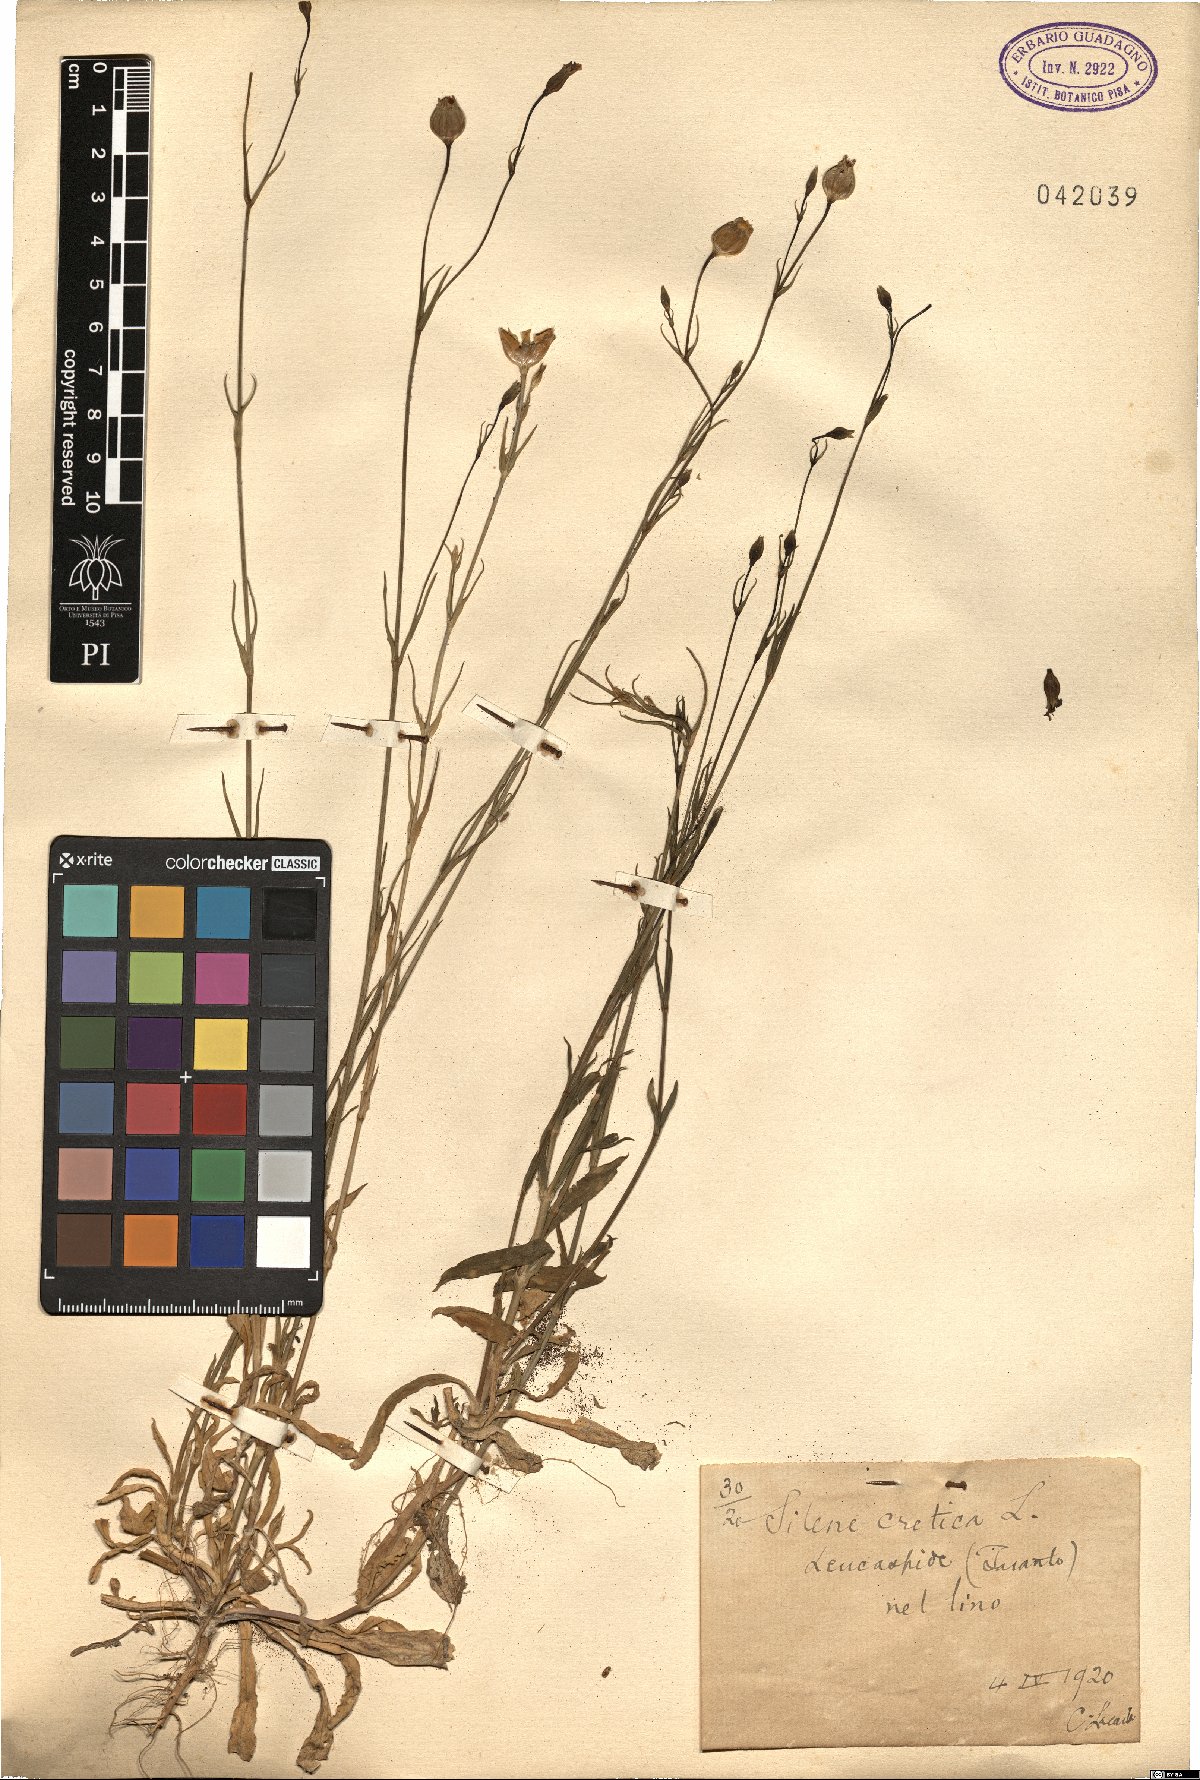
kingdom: Plantae
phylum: Tracheophyta
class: Magnoliopsida
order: Caryophyllales
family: Caryophyllaceae
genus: Silene
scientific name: Silene cretica
